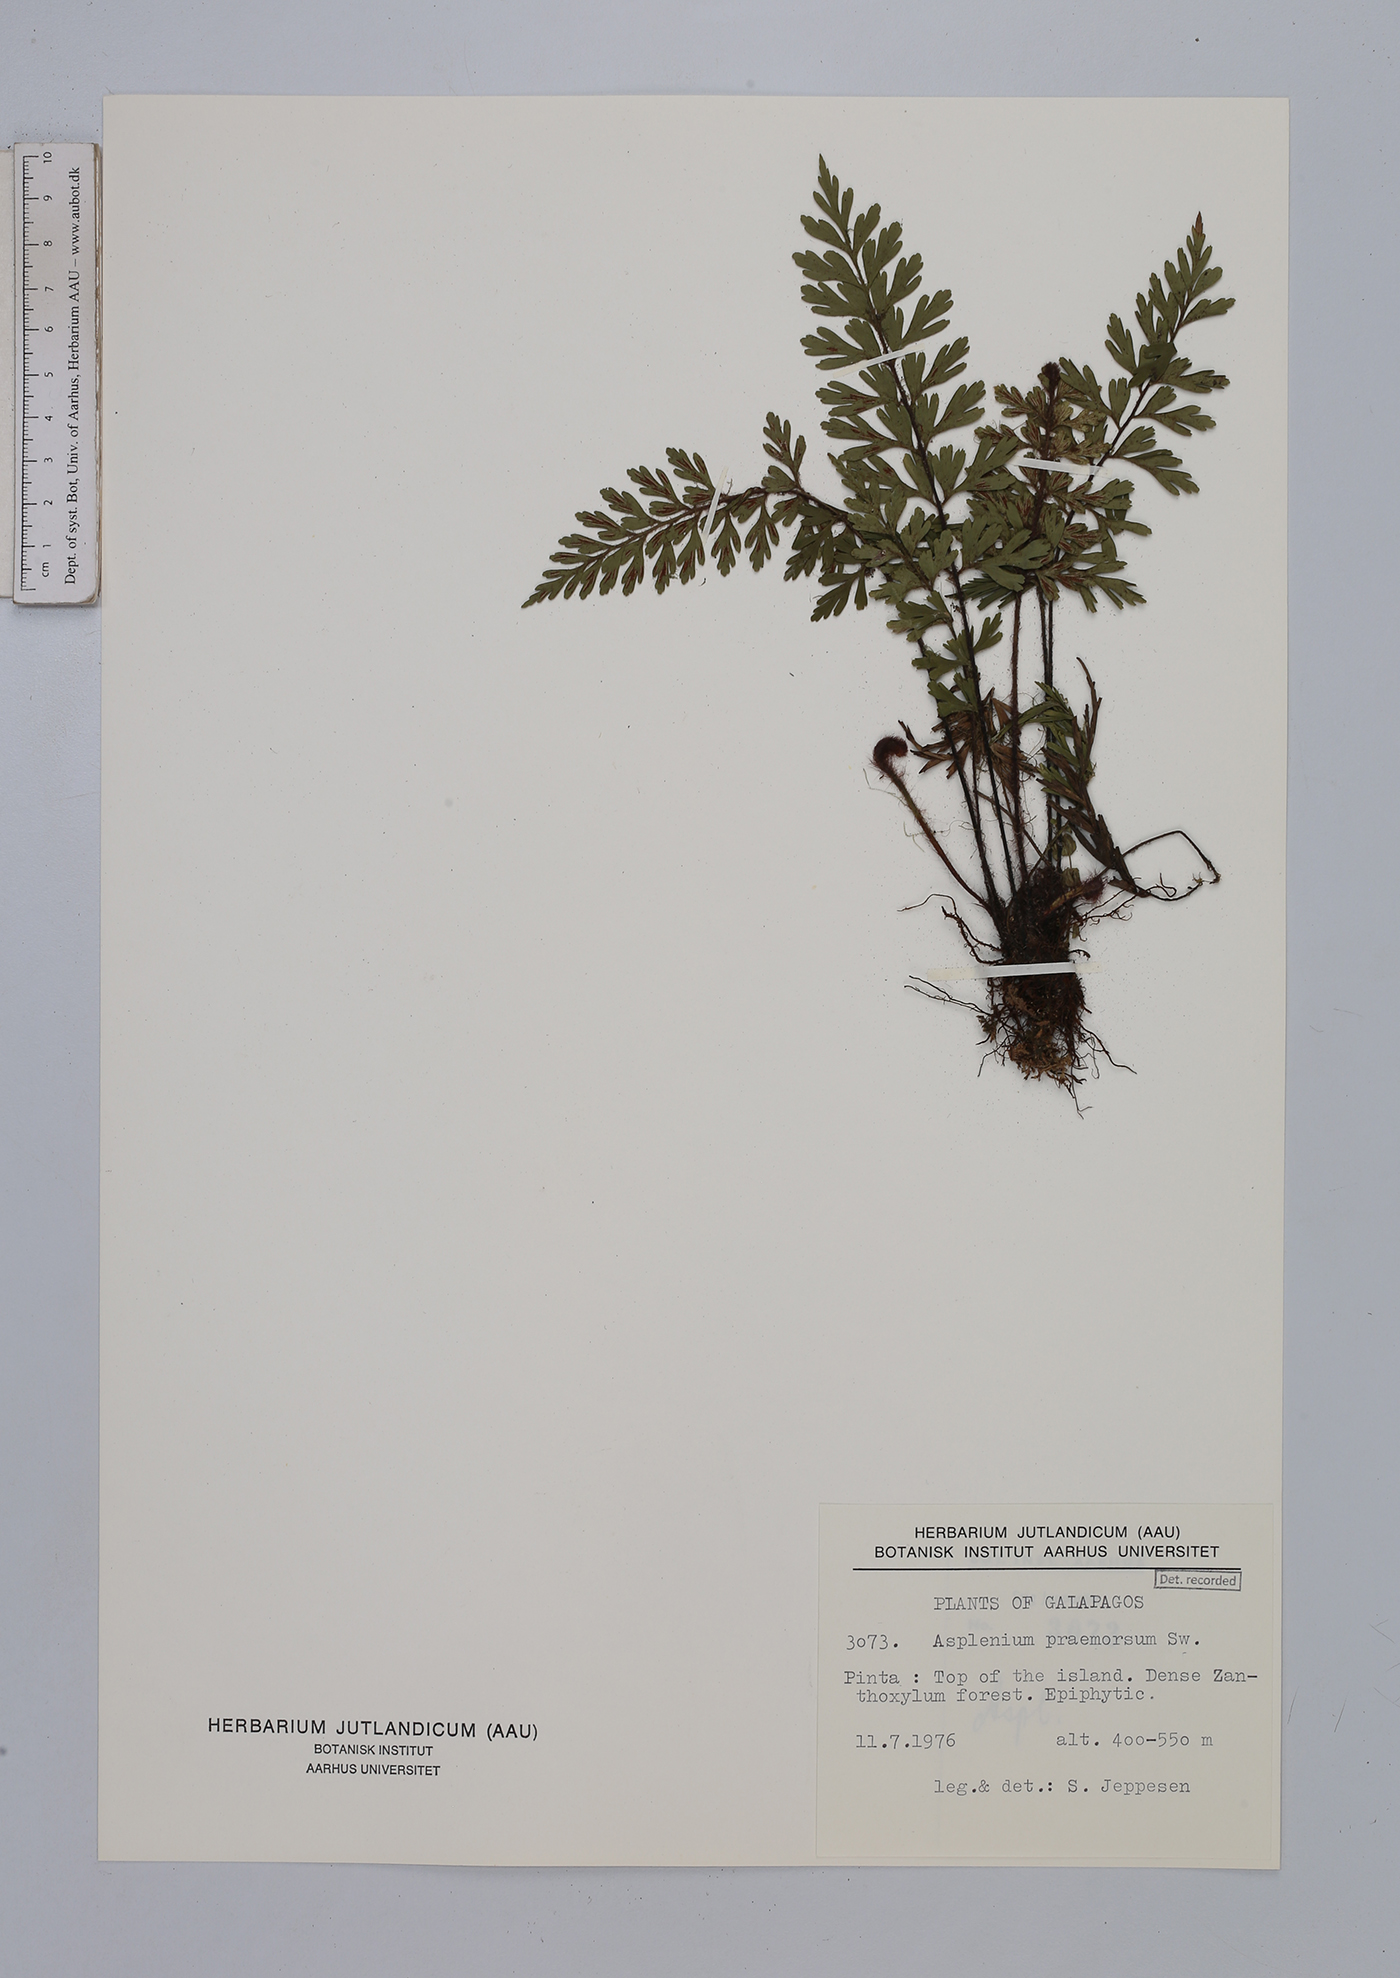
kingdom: Plantae
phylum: Tracheophyta
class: Polypodiopsida
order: Polypodiales
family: Aspleniaceae
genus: Asplenium
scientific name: Asplenium praemorsum
